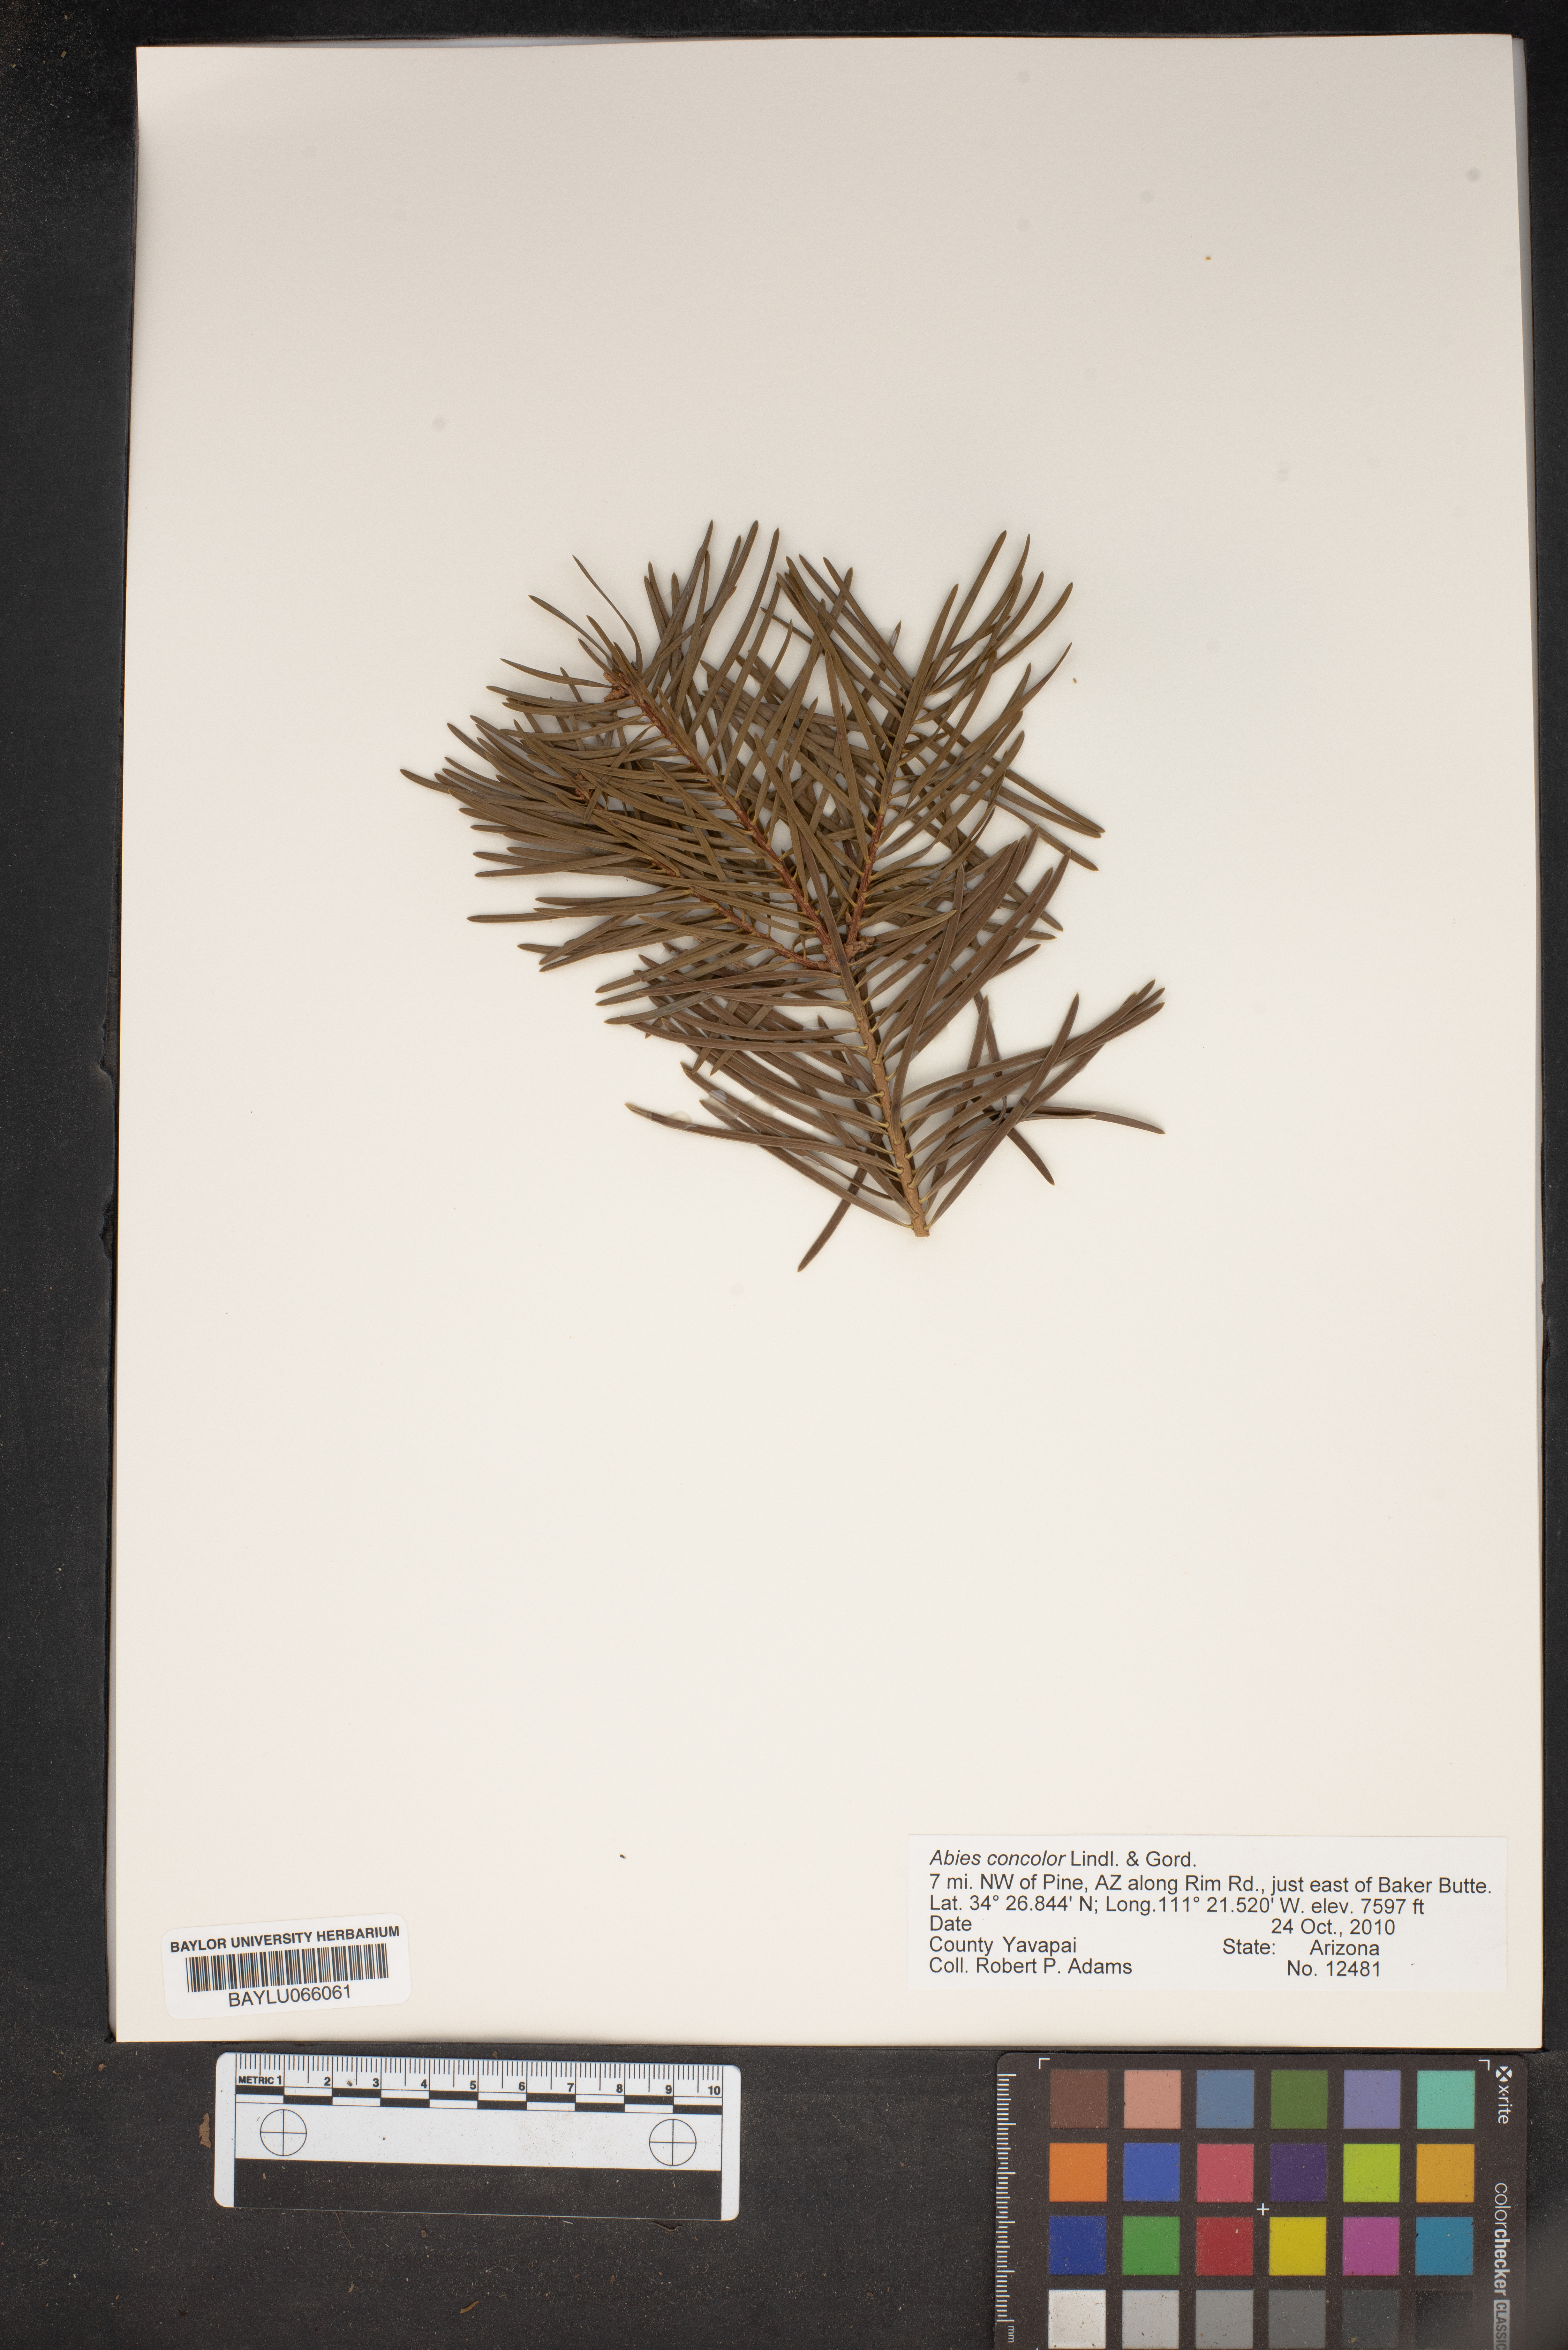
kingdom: Plantae
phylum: Tracheophyta
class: Pinopsida
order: Pinales
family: Pinaceae
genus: Abies
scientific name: Abies concolor
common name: Colorado fir
